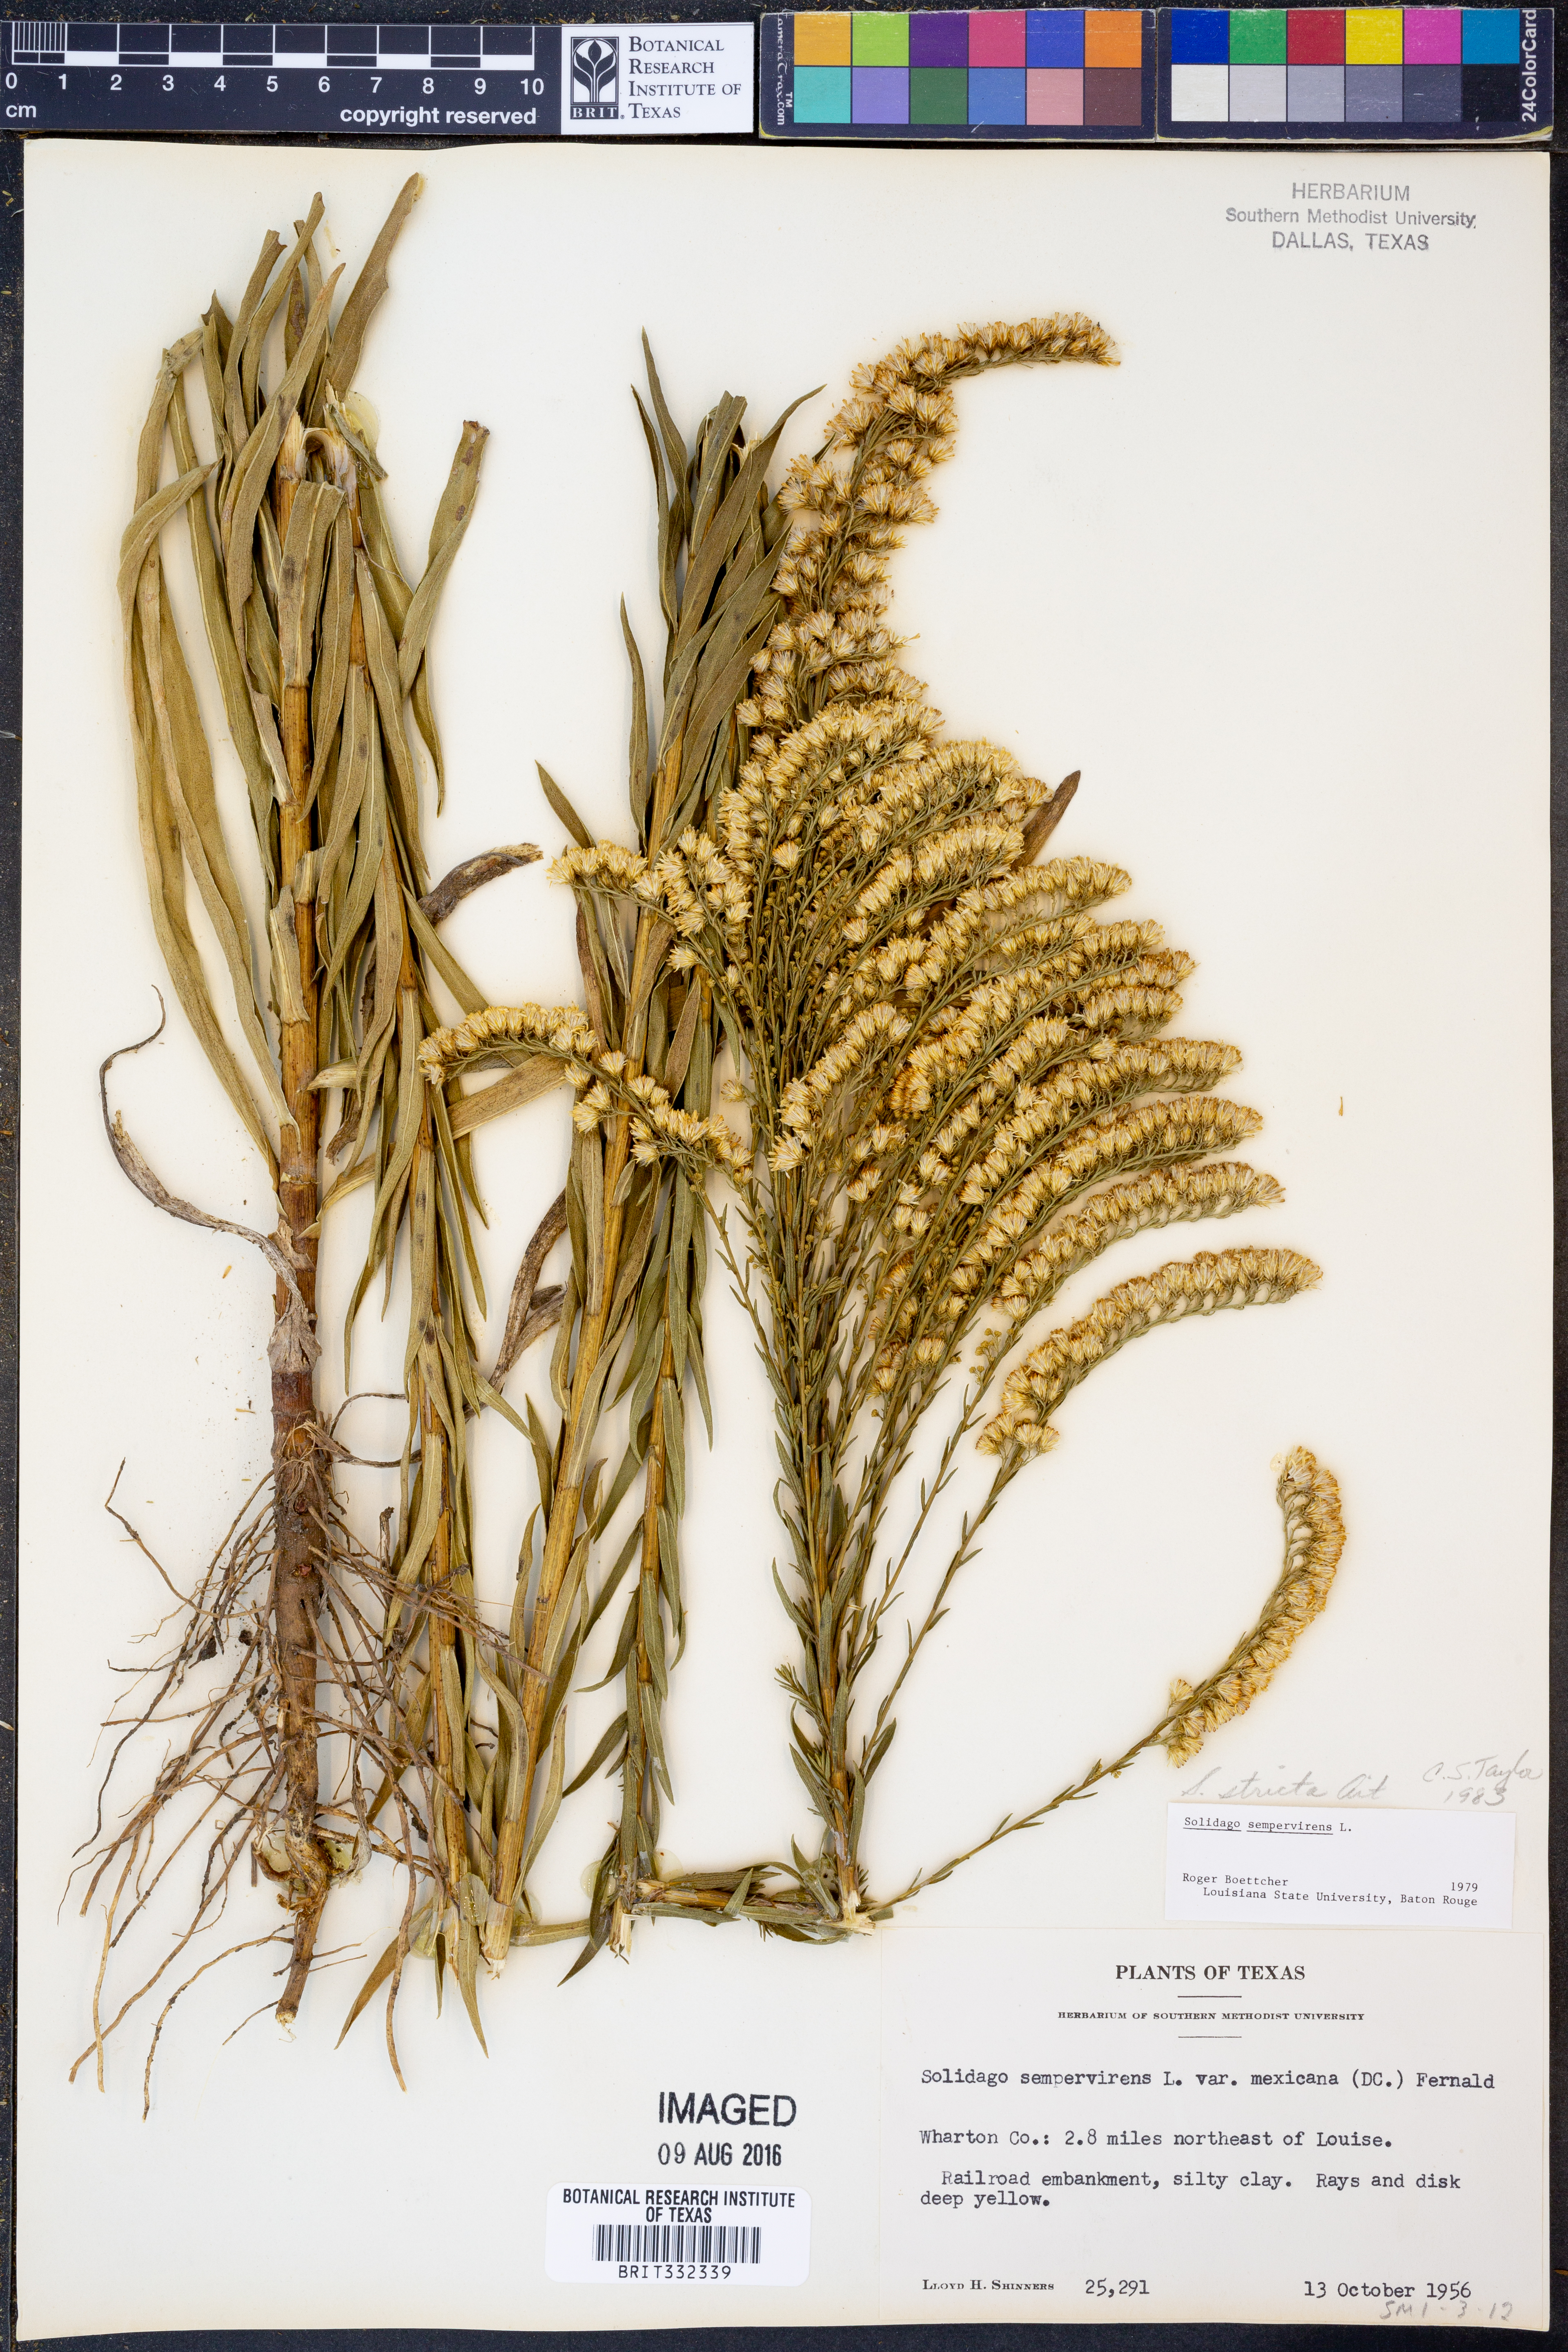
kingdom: Plantae
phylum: Tracheophyta
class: Magnoliopsida
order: Asterales
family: Asteraceae
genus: Solidago
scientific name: Solidago stricta
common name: Pine barren bog goldenrod
